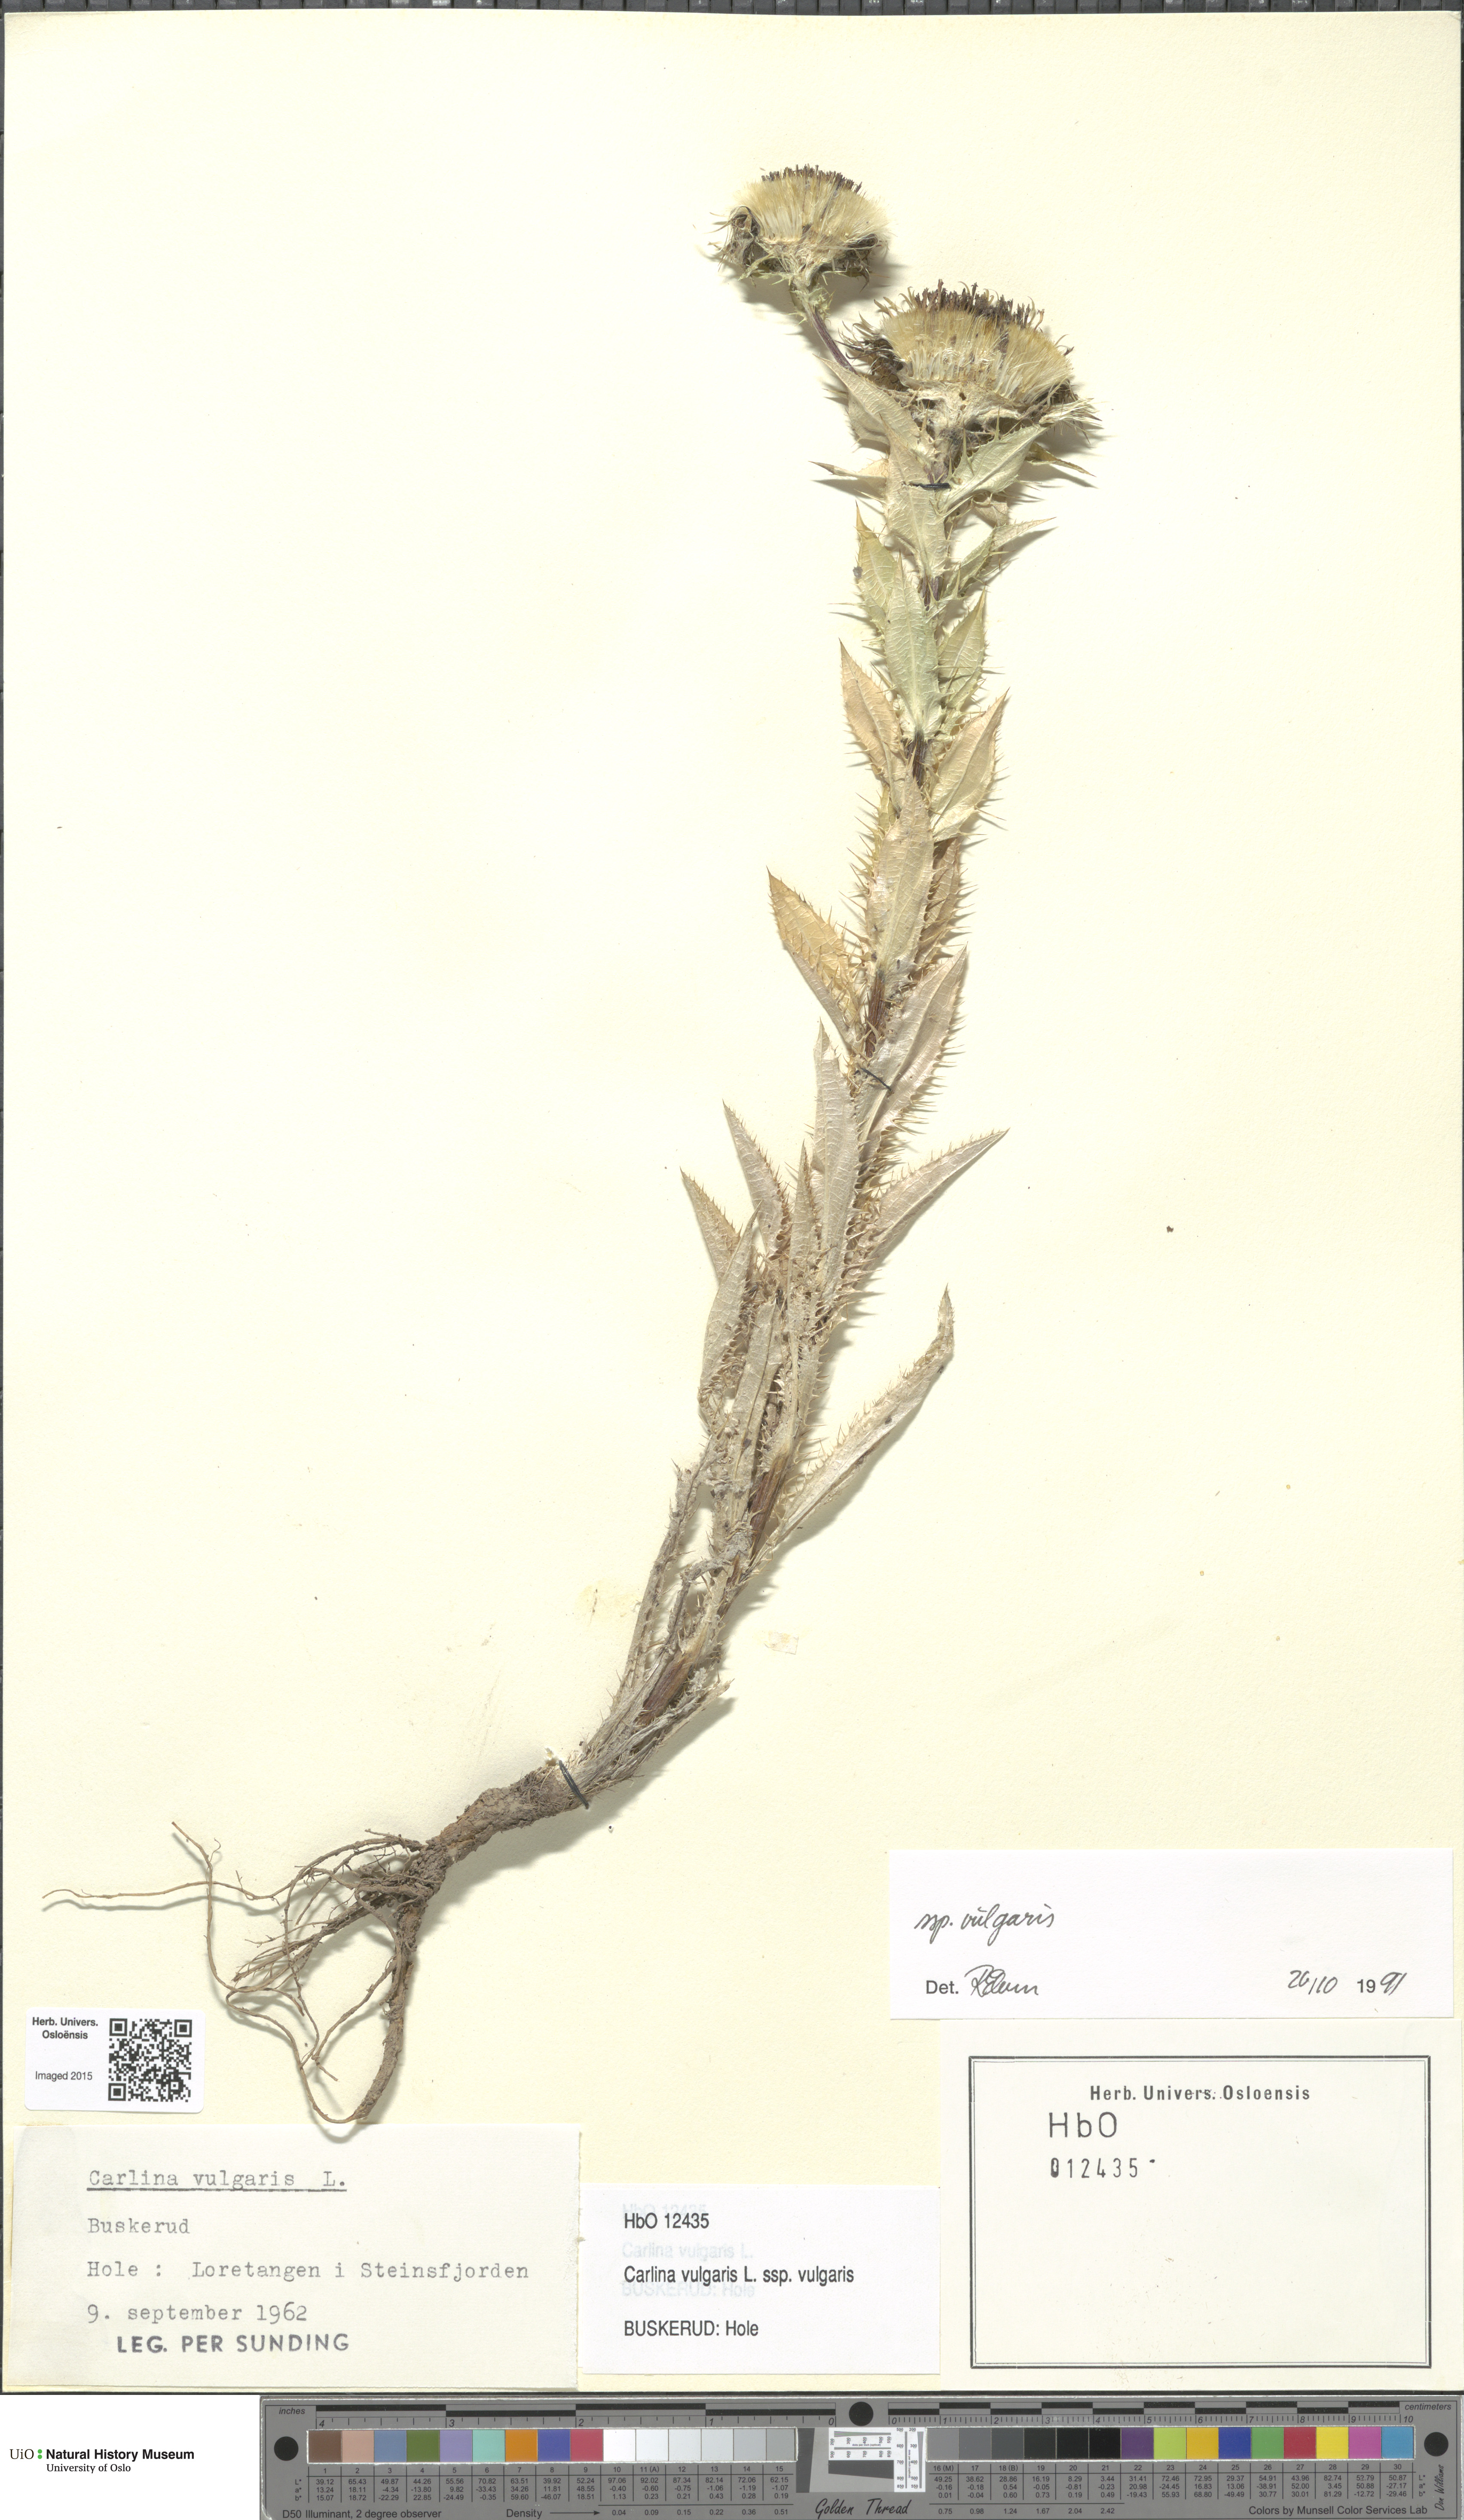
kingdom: Plantae
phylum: Tracheophyta
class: Magnoliopsida
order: Asterales
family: Asteraceae
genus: Carlina
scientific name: Carlina vulgaris
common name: Carline thistle
